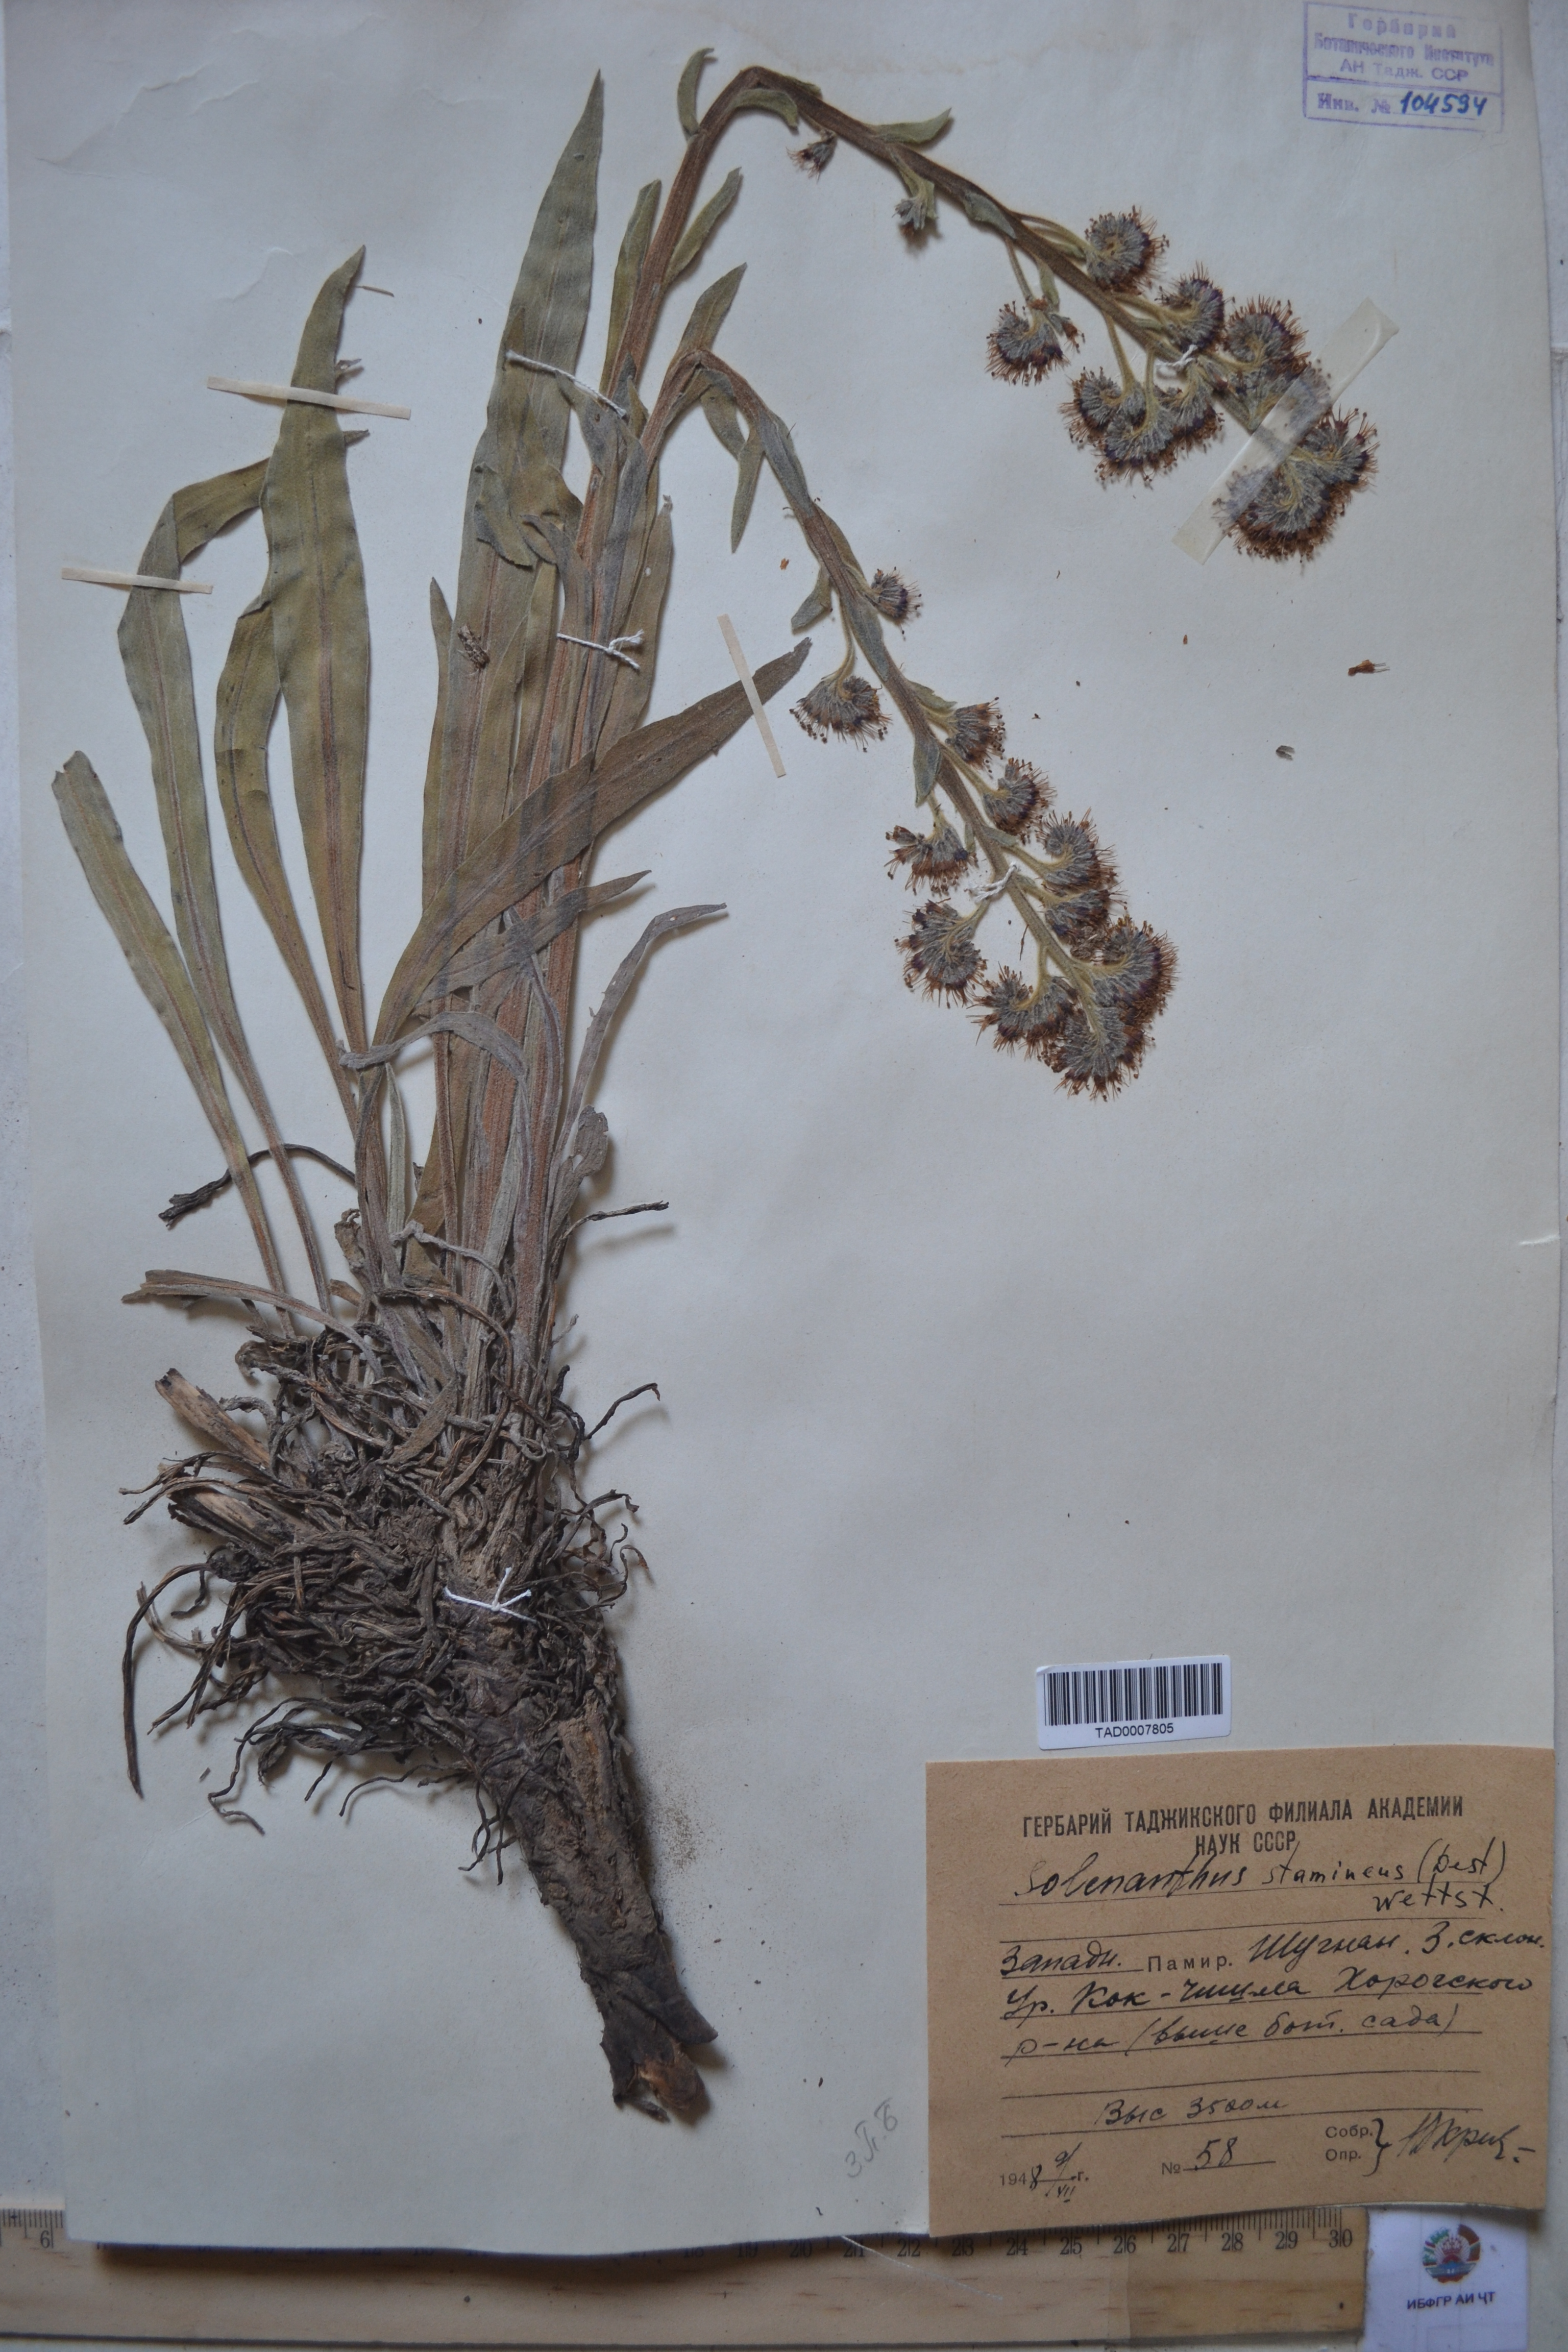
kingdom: Plantae
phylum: Tracheophyta
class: Magnoliopsida
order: Boraginales
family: Boraginaceae
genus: Solenanthus
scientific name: Solenanthus stamineus
